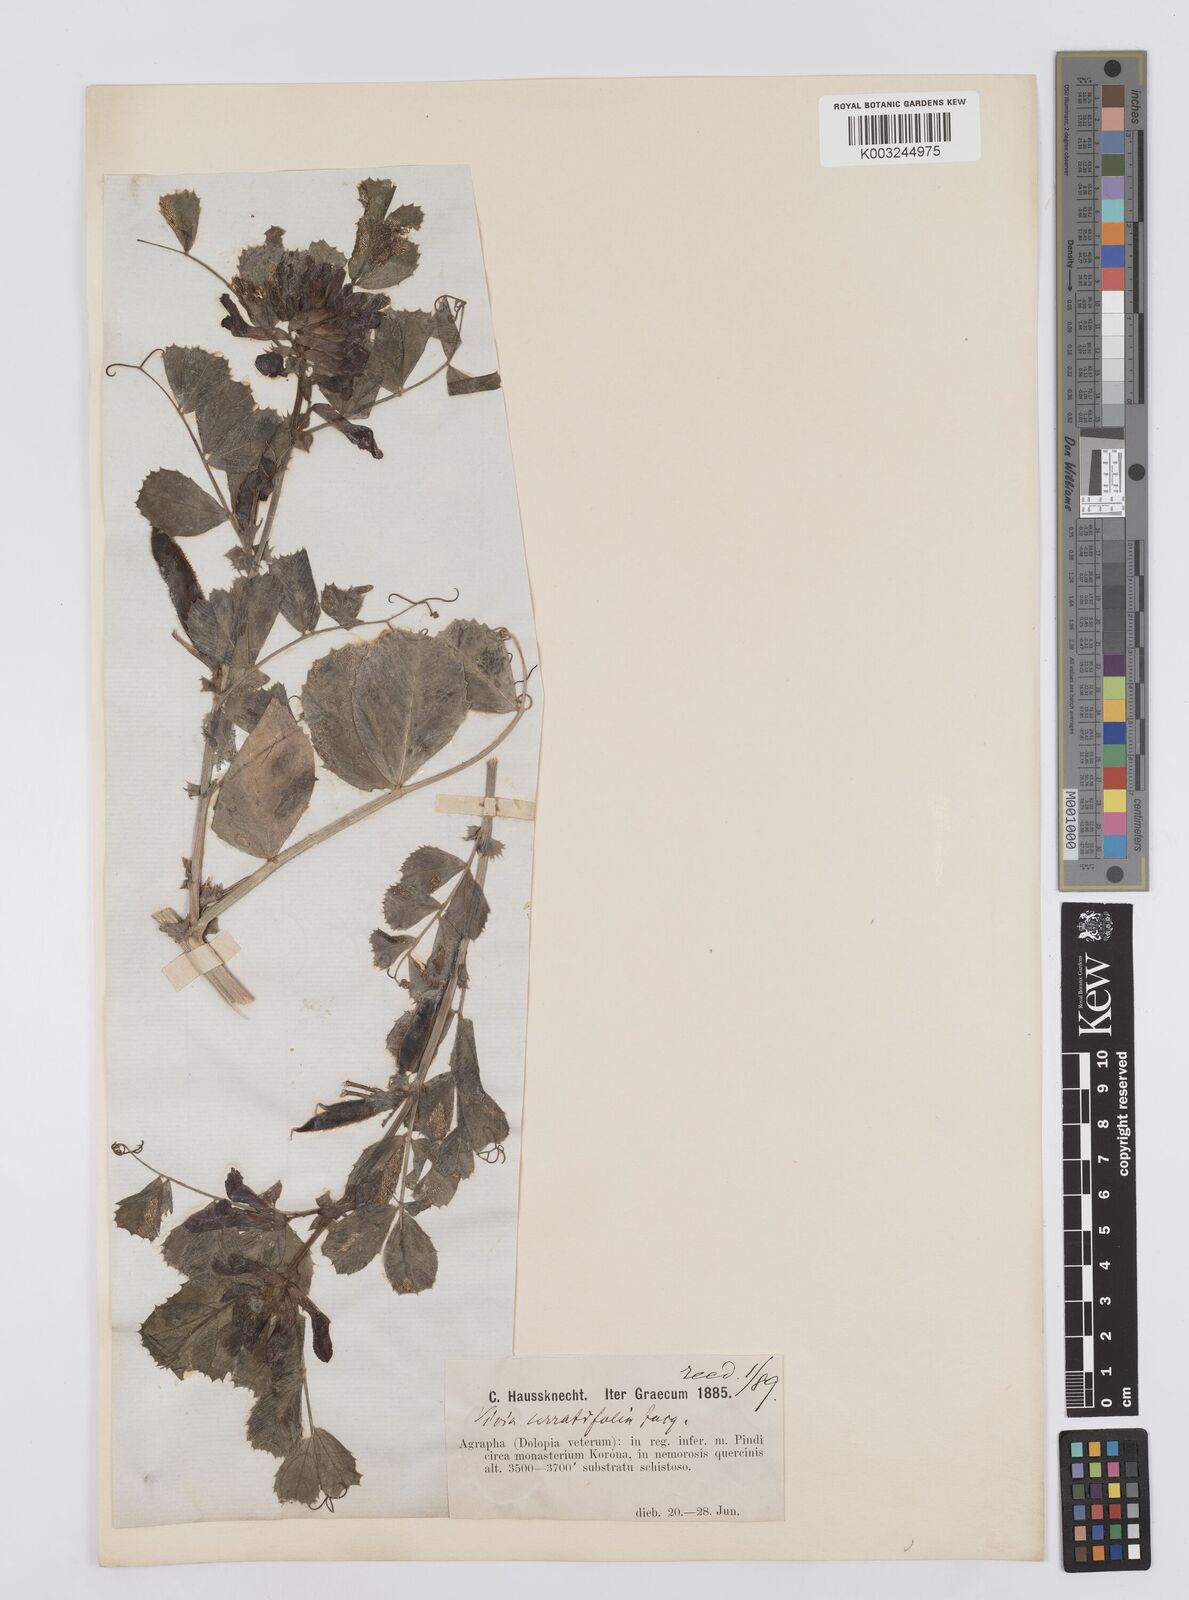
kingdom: Plantae
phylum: Tracheophyta
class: Magnoliopsida
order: Fabales
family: Fabaceae
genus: Vicia
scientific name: Vicia serratifolia
